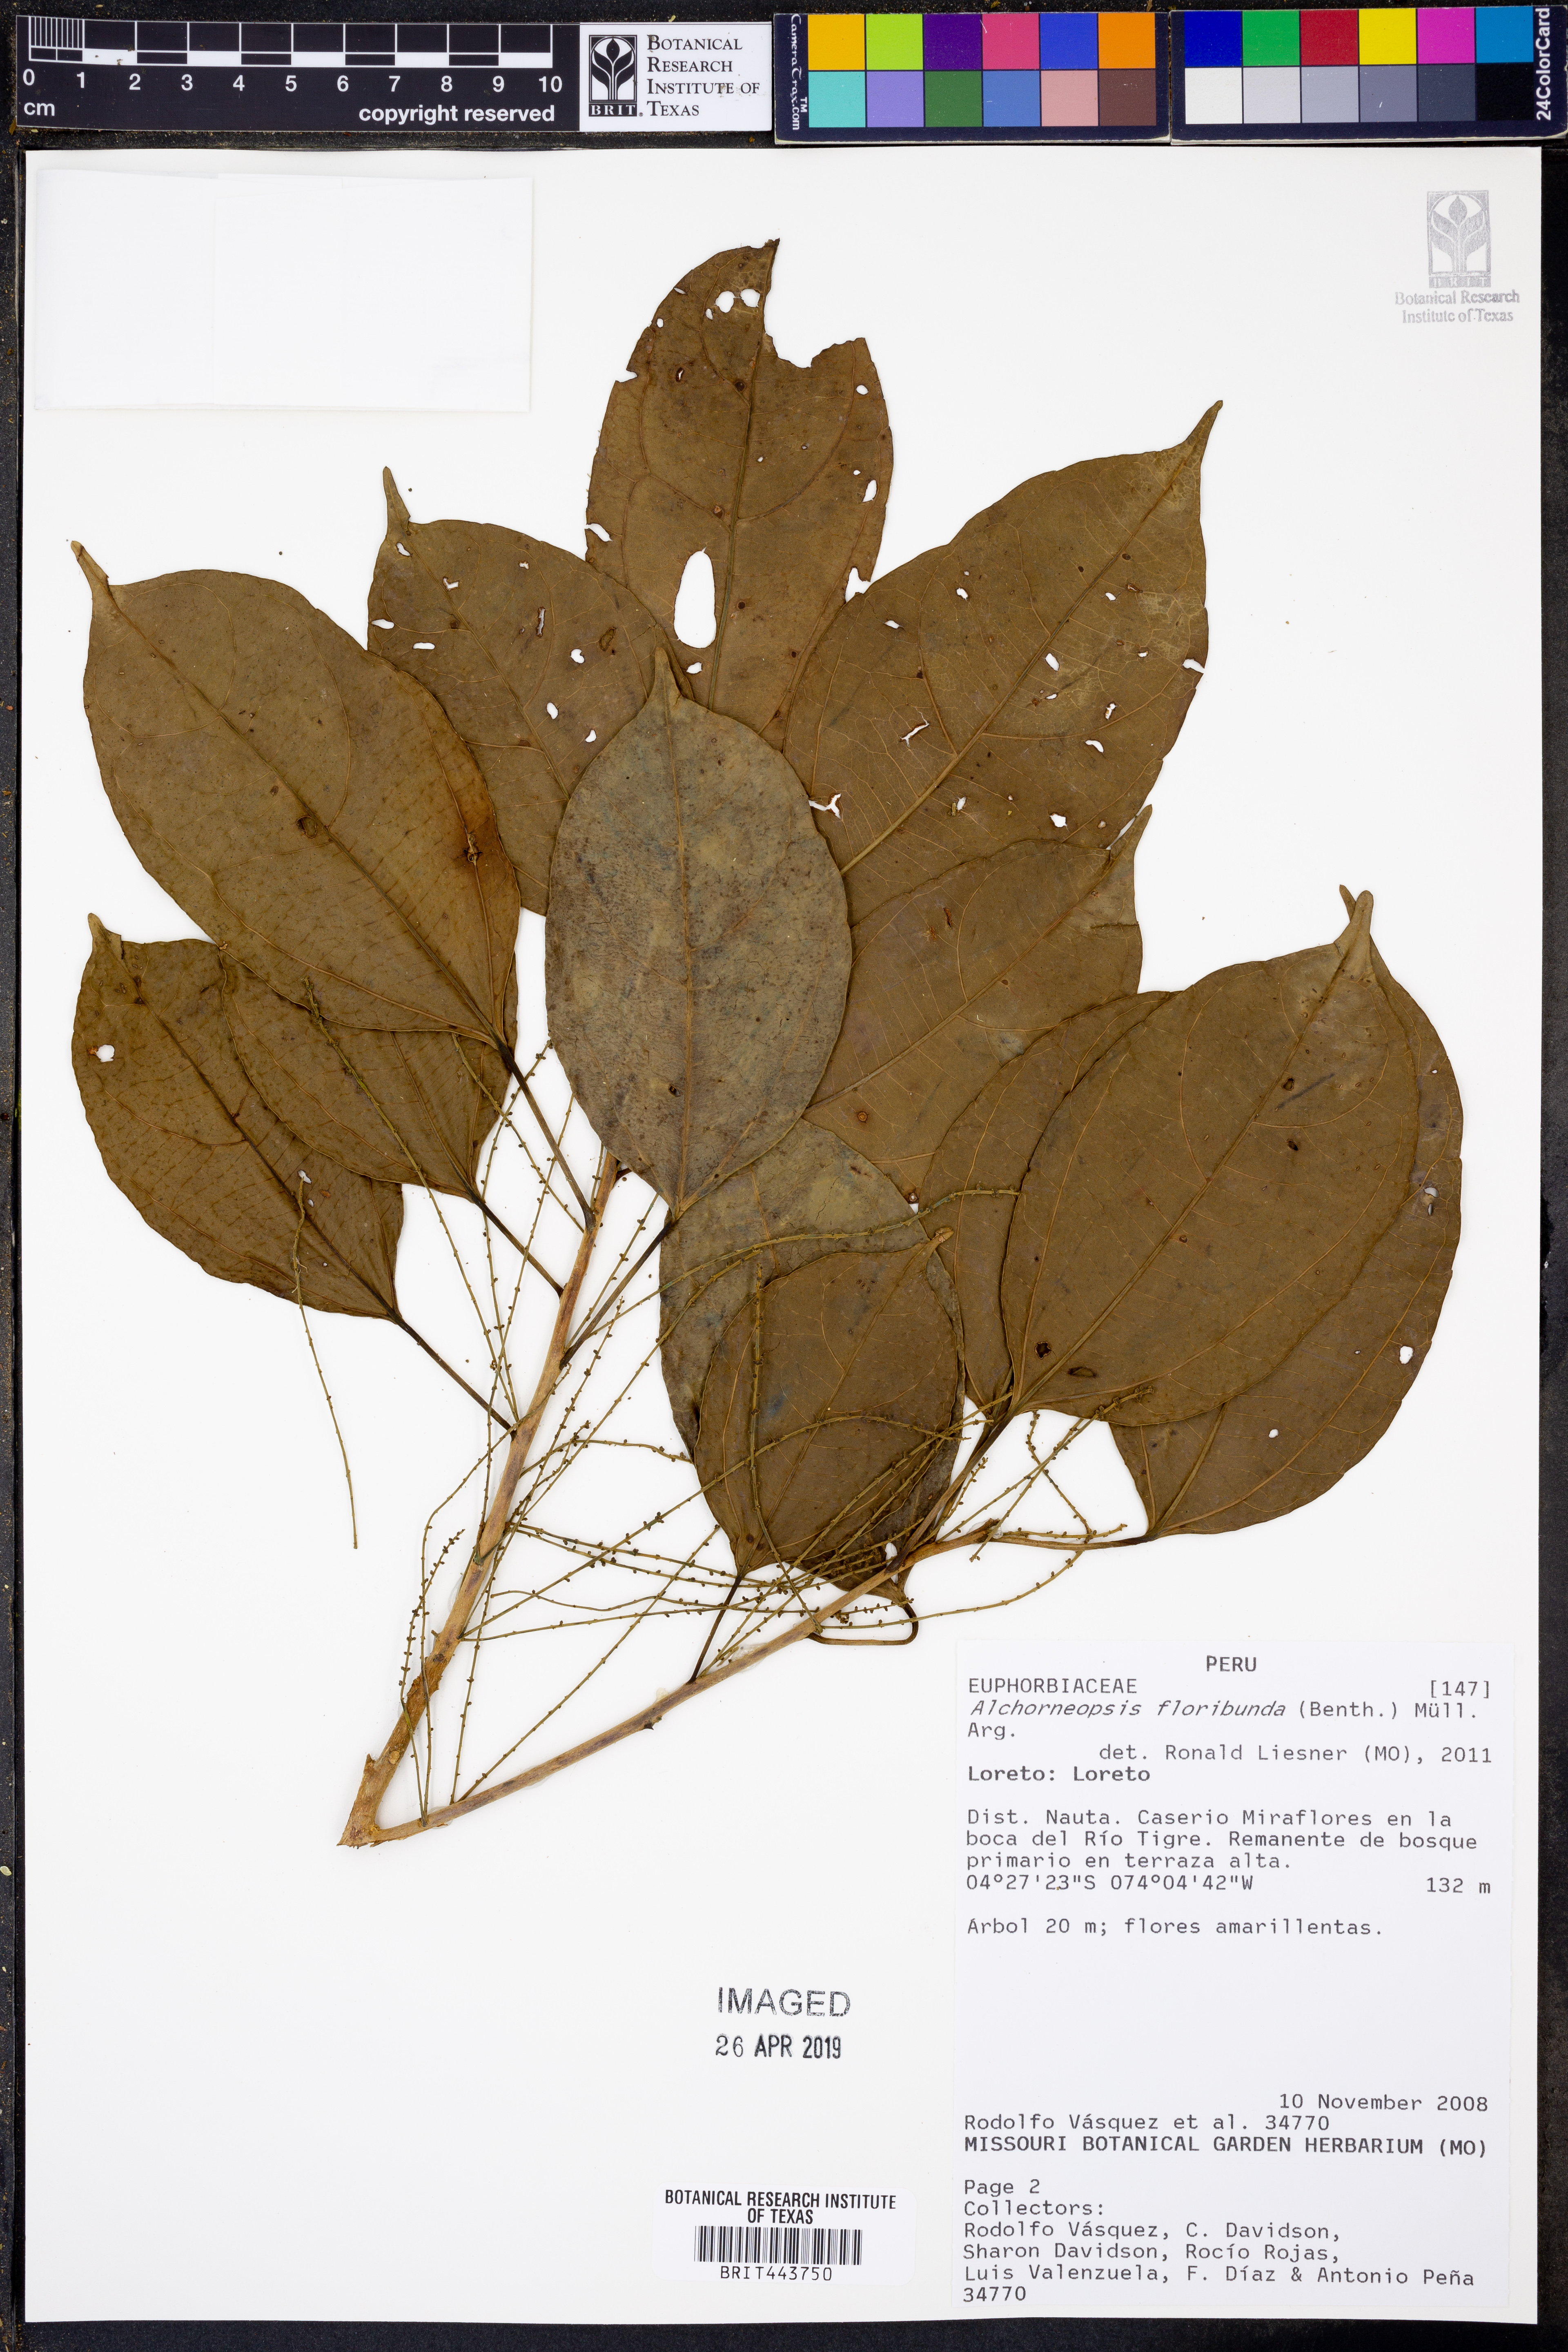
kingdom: Plantae
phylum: Tracheophyta
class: Magnoliopsida
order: Malpighiales
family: Euphorbiaceae
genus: Alchorneopsis
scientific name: Alchorneopsis floribunda
